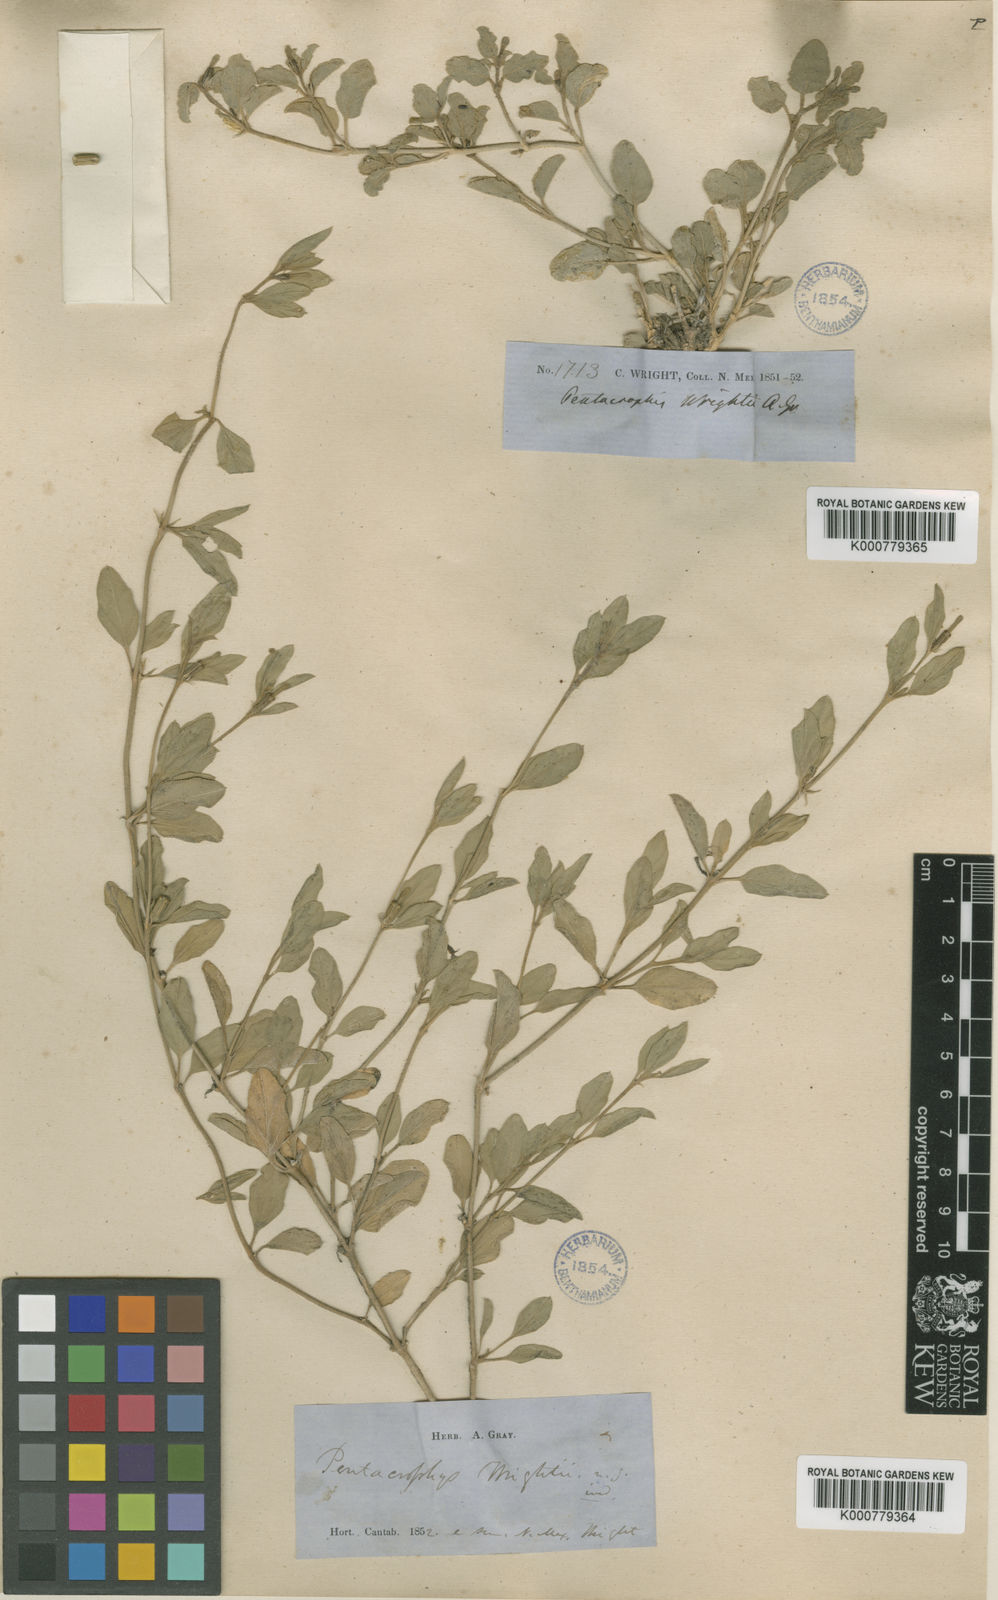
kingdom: Plantae
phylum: Tracheophyta
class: Magnoliopsida
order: Caryophyllales
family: Nyctaginaceae
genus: Acleisanthes
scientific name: Acleisanthes wrightii
